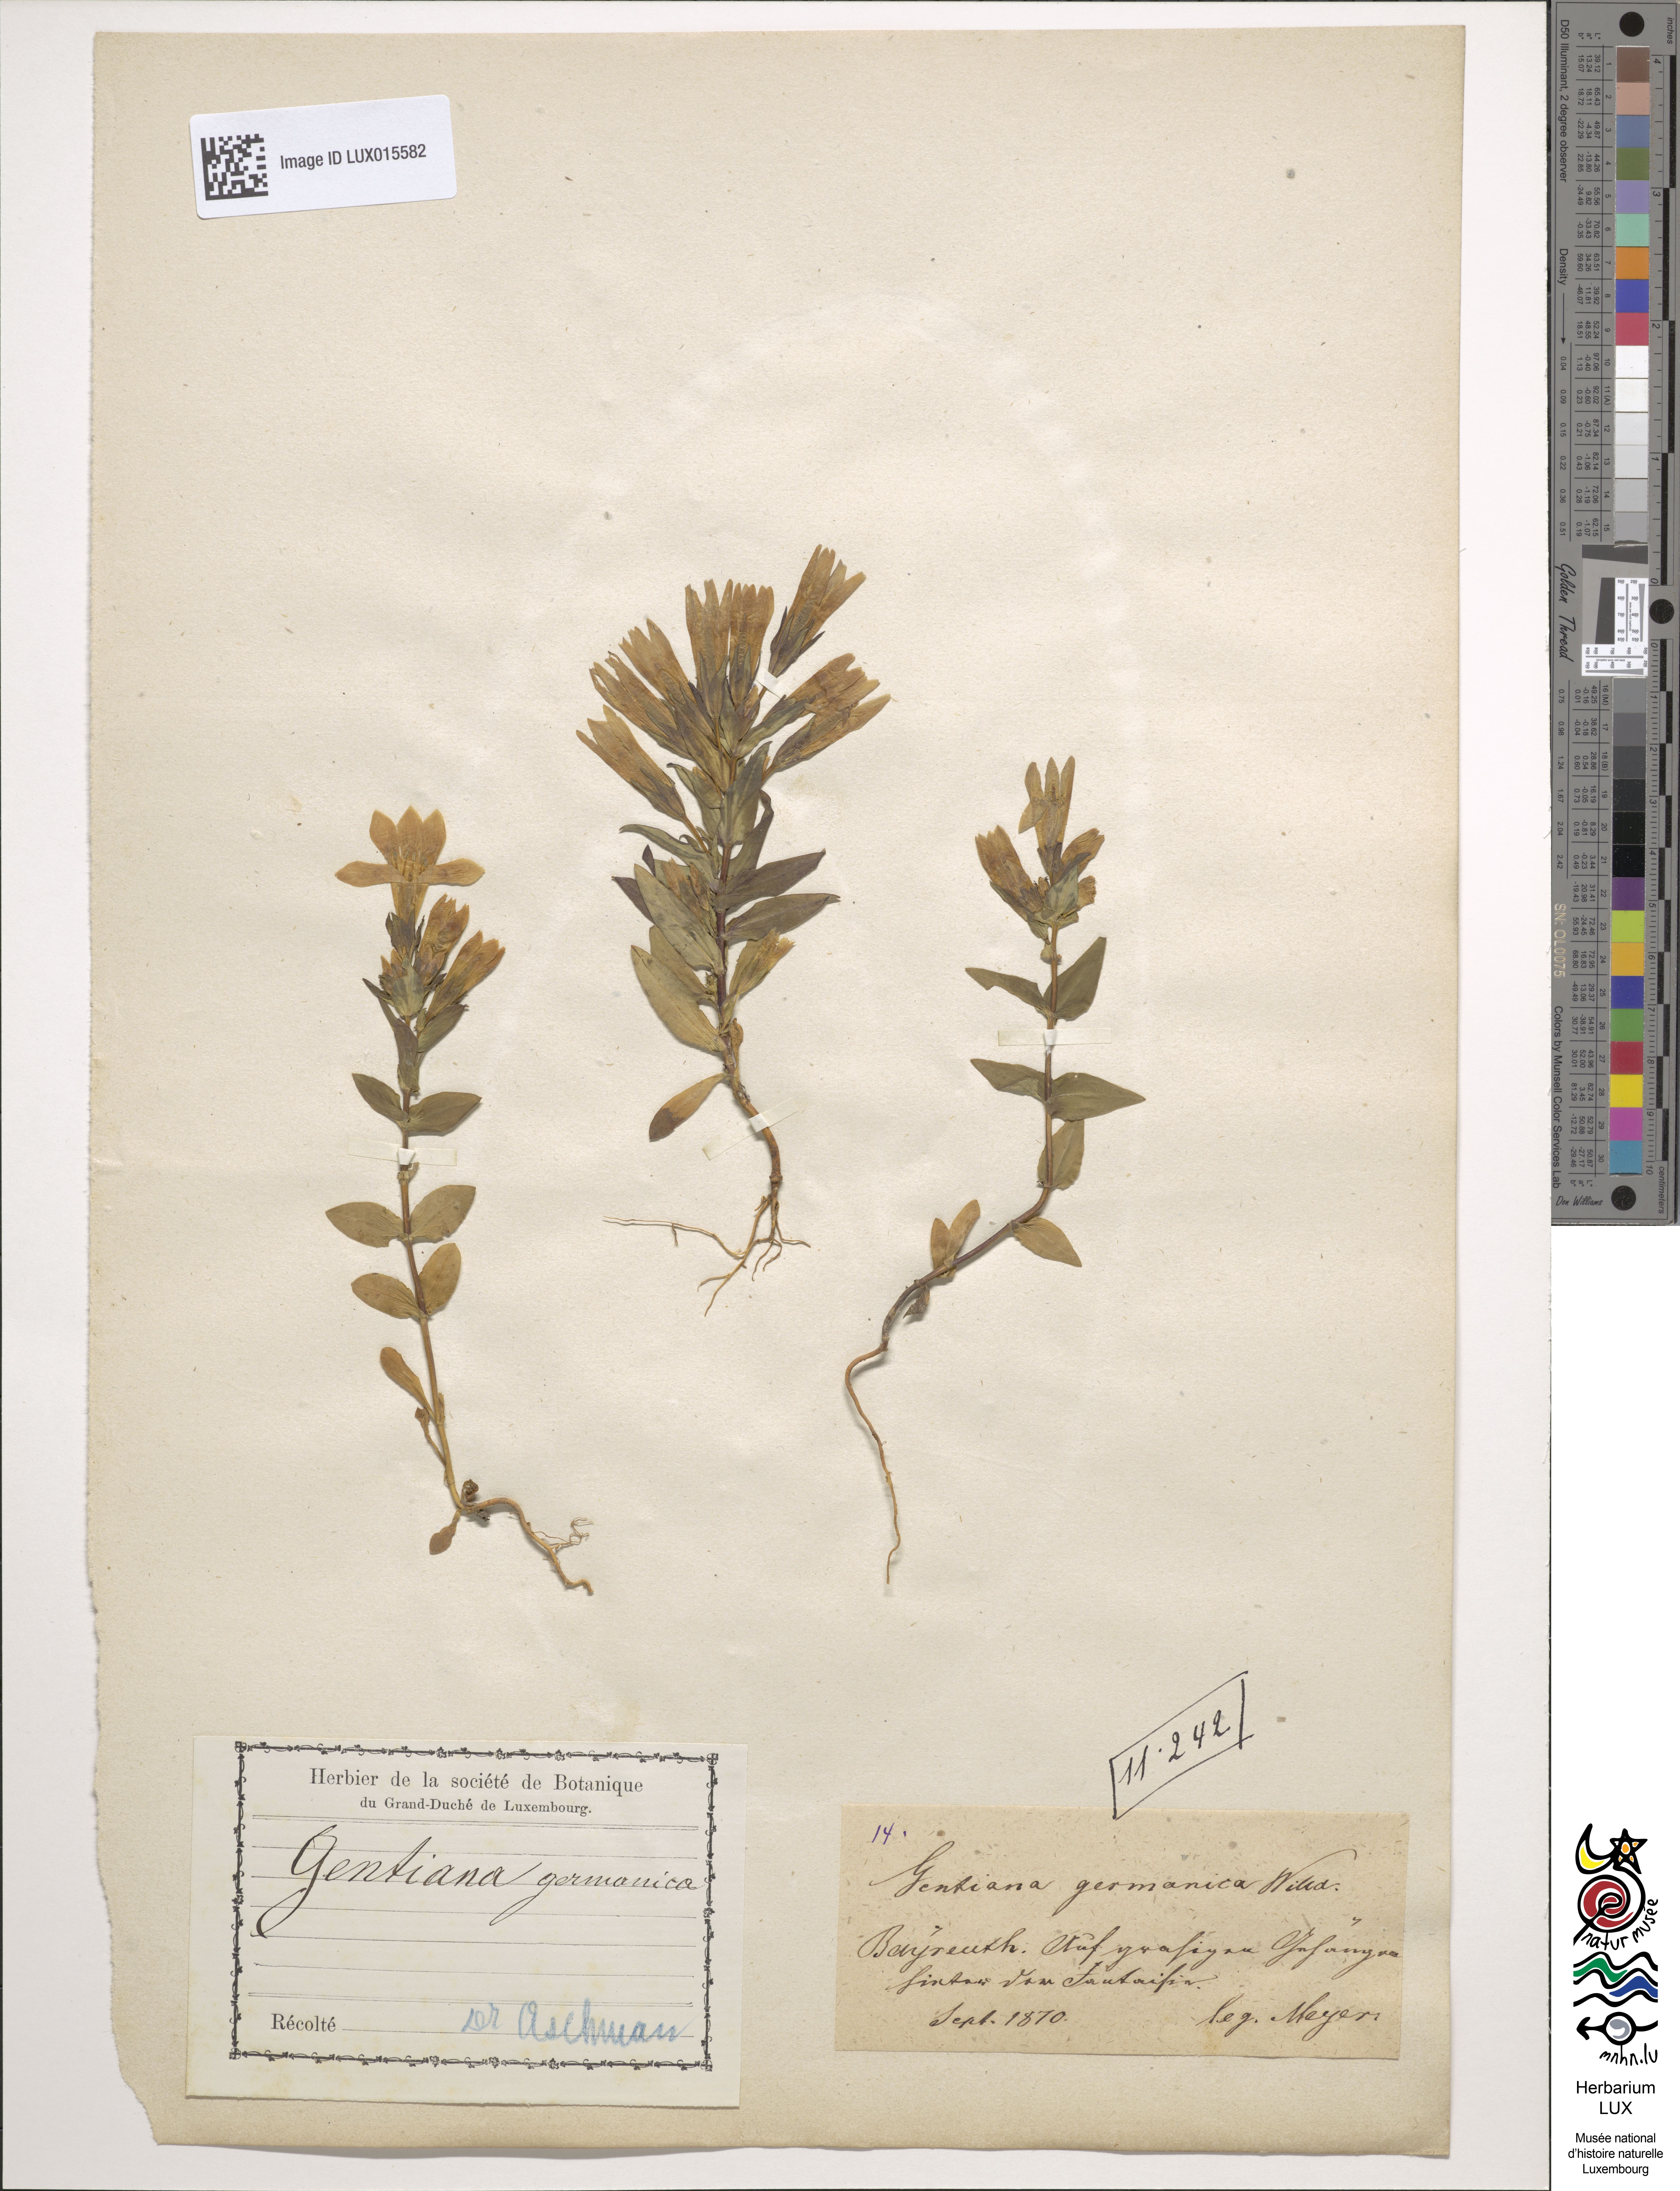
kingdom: Plantae
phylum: Tracheophyta
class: Magnoliopsida
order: Gentianales
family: Gentianaceae
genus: Gentianella
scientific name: Gentianella germanica
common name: Chiltern-gentian
